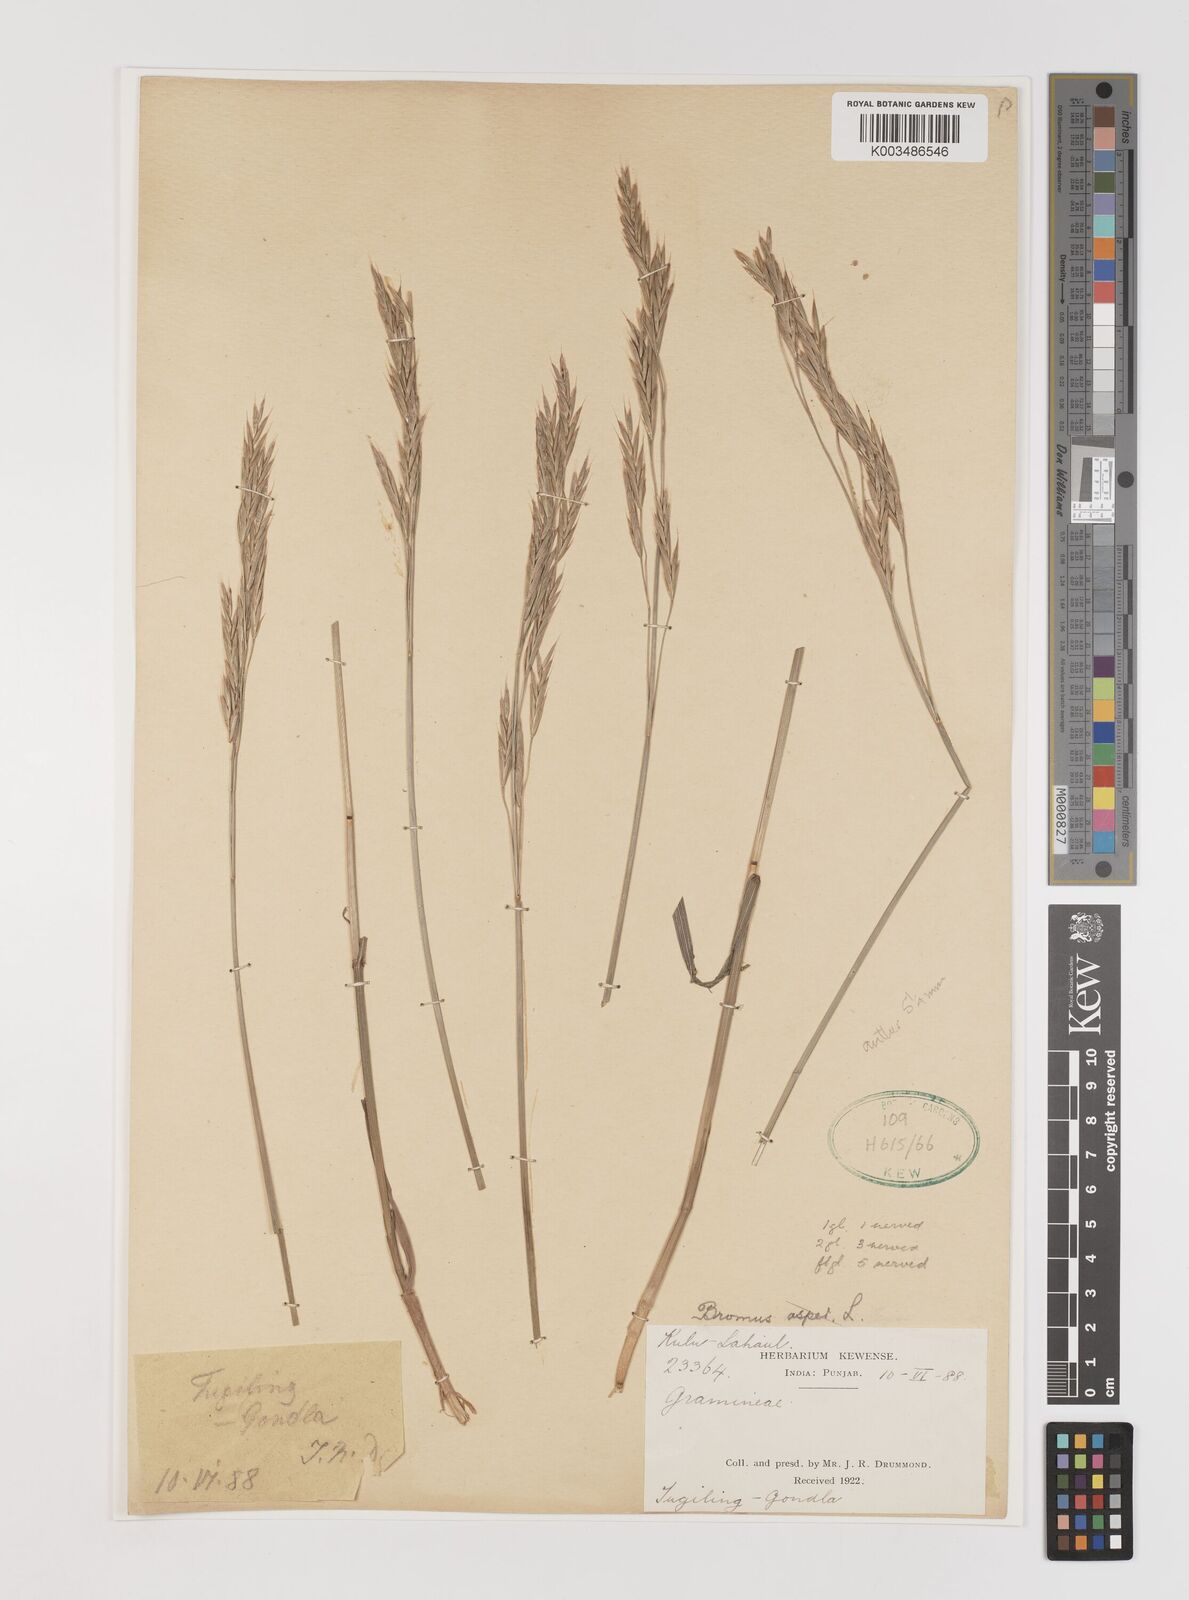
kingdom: Plantae
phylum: Tracheophyta
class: Liliopsida
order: Poales
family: Poaceae
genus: Bromus
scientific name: Bromus inermis
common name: Smooth brome
